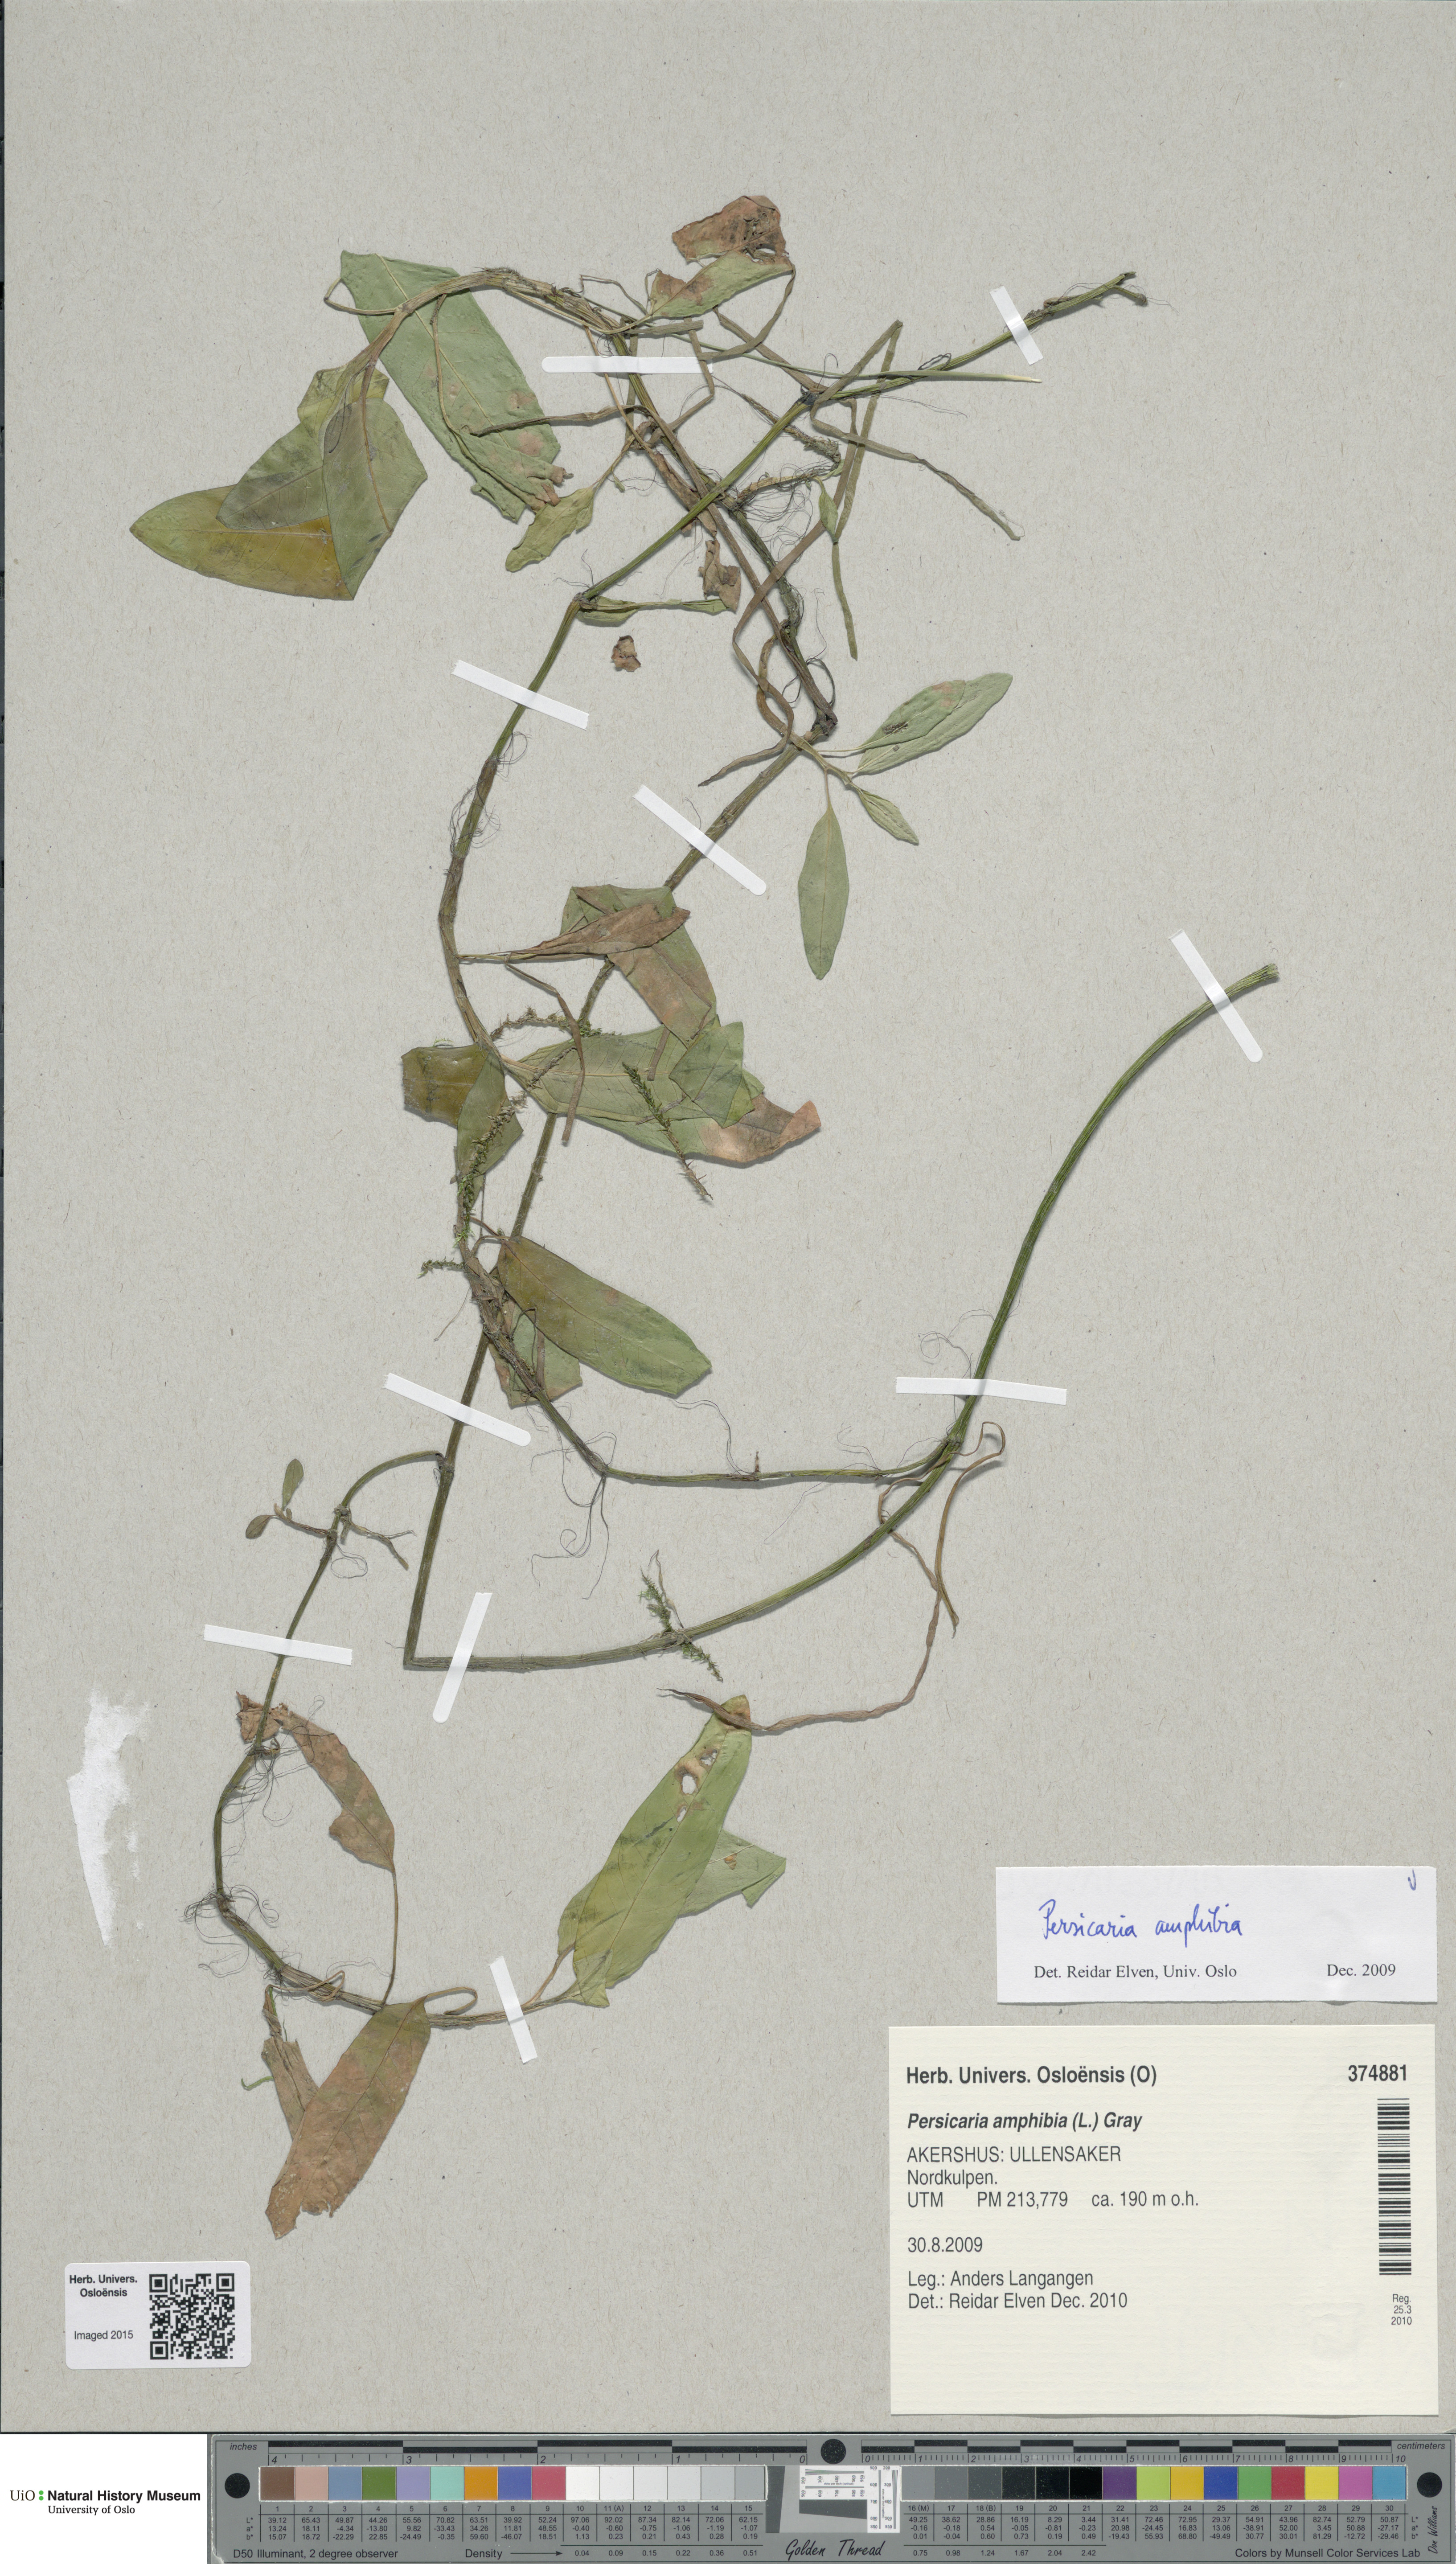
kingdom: Plantae
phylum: Tracheophyta
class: Magnoliopsida
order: Caryophyllales
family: Polygonaceae
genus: Persicaria
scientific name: Persicaria amphibia
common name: Amphibious bistort
